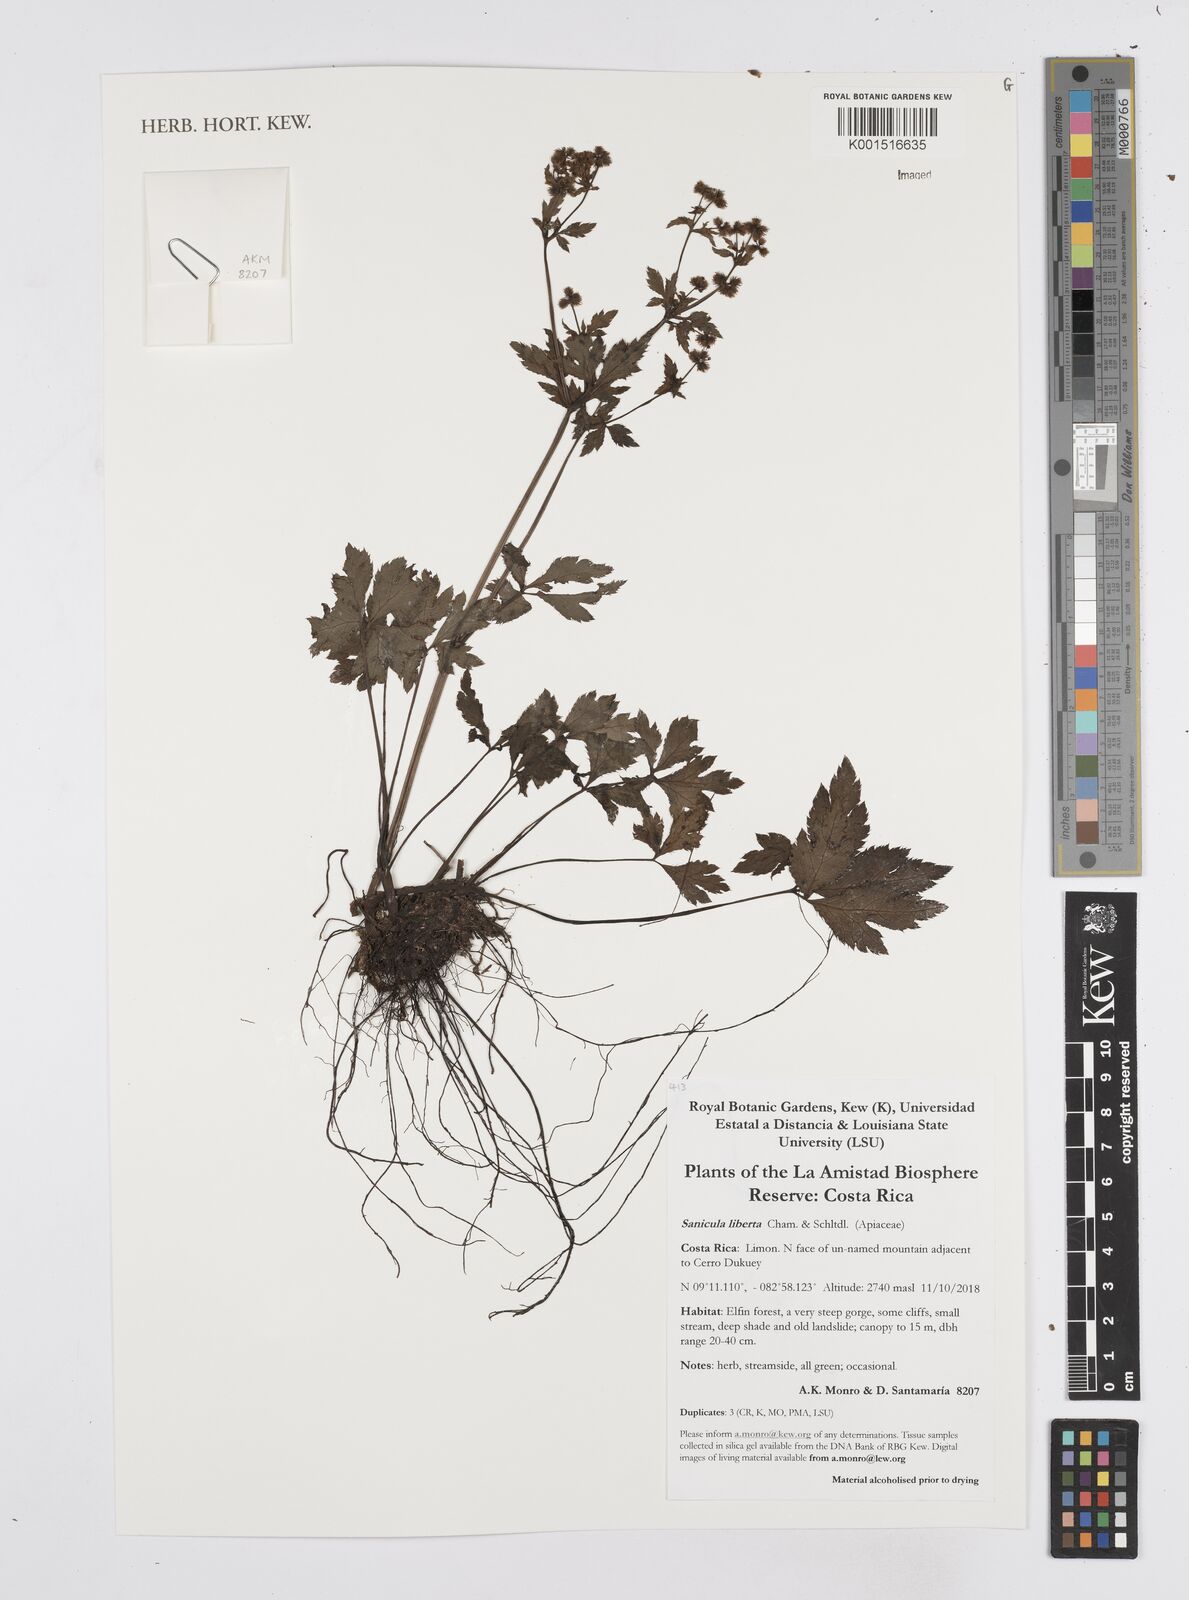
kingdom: Plantae
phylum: Tracheophyta
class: Magnoliopsida
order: Apiales
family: Apiaceae
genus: Sanicula
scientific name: Sanicula liberta
